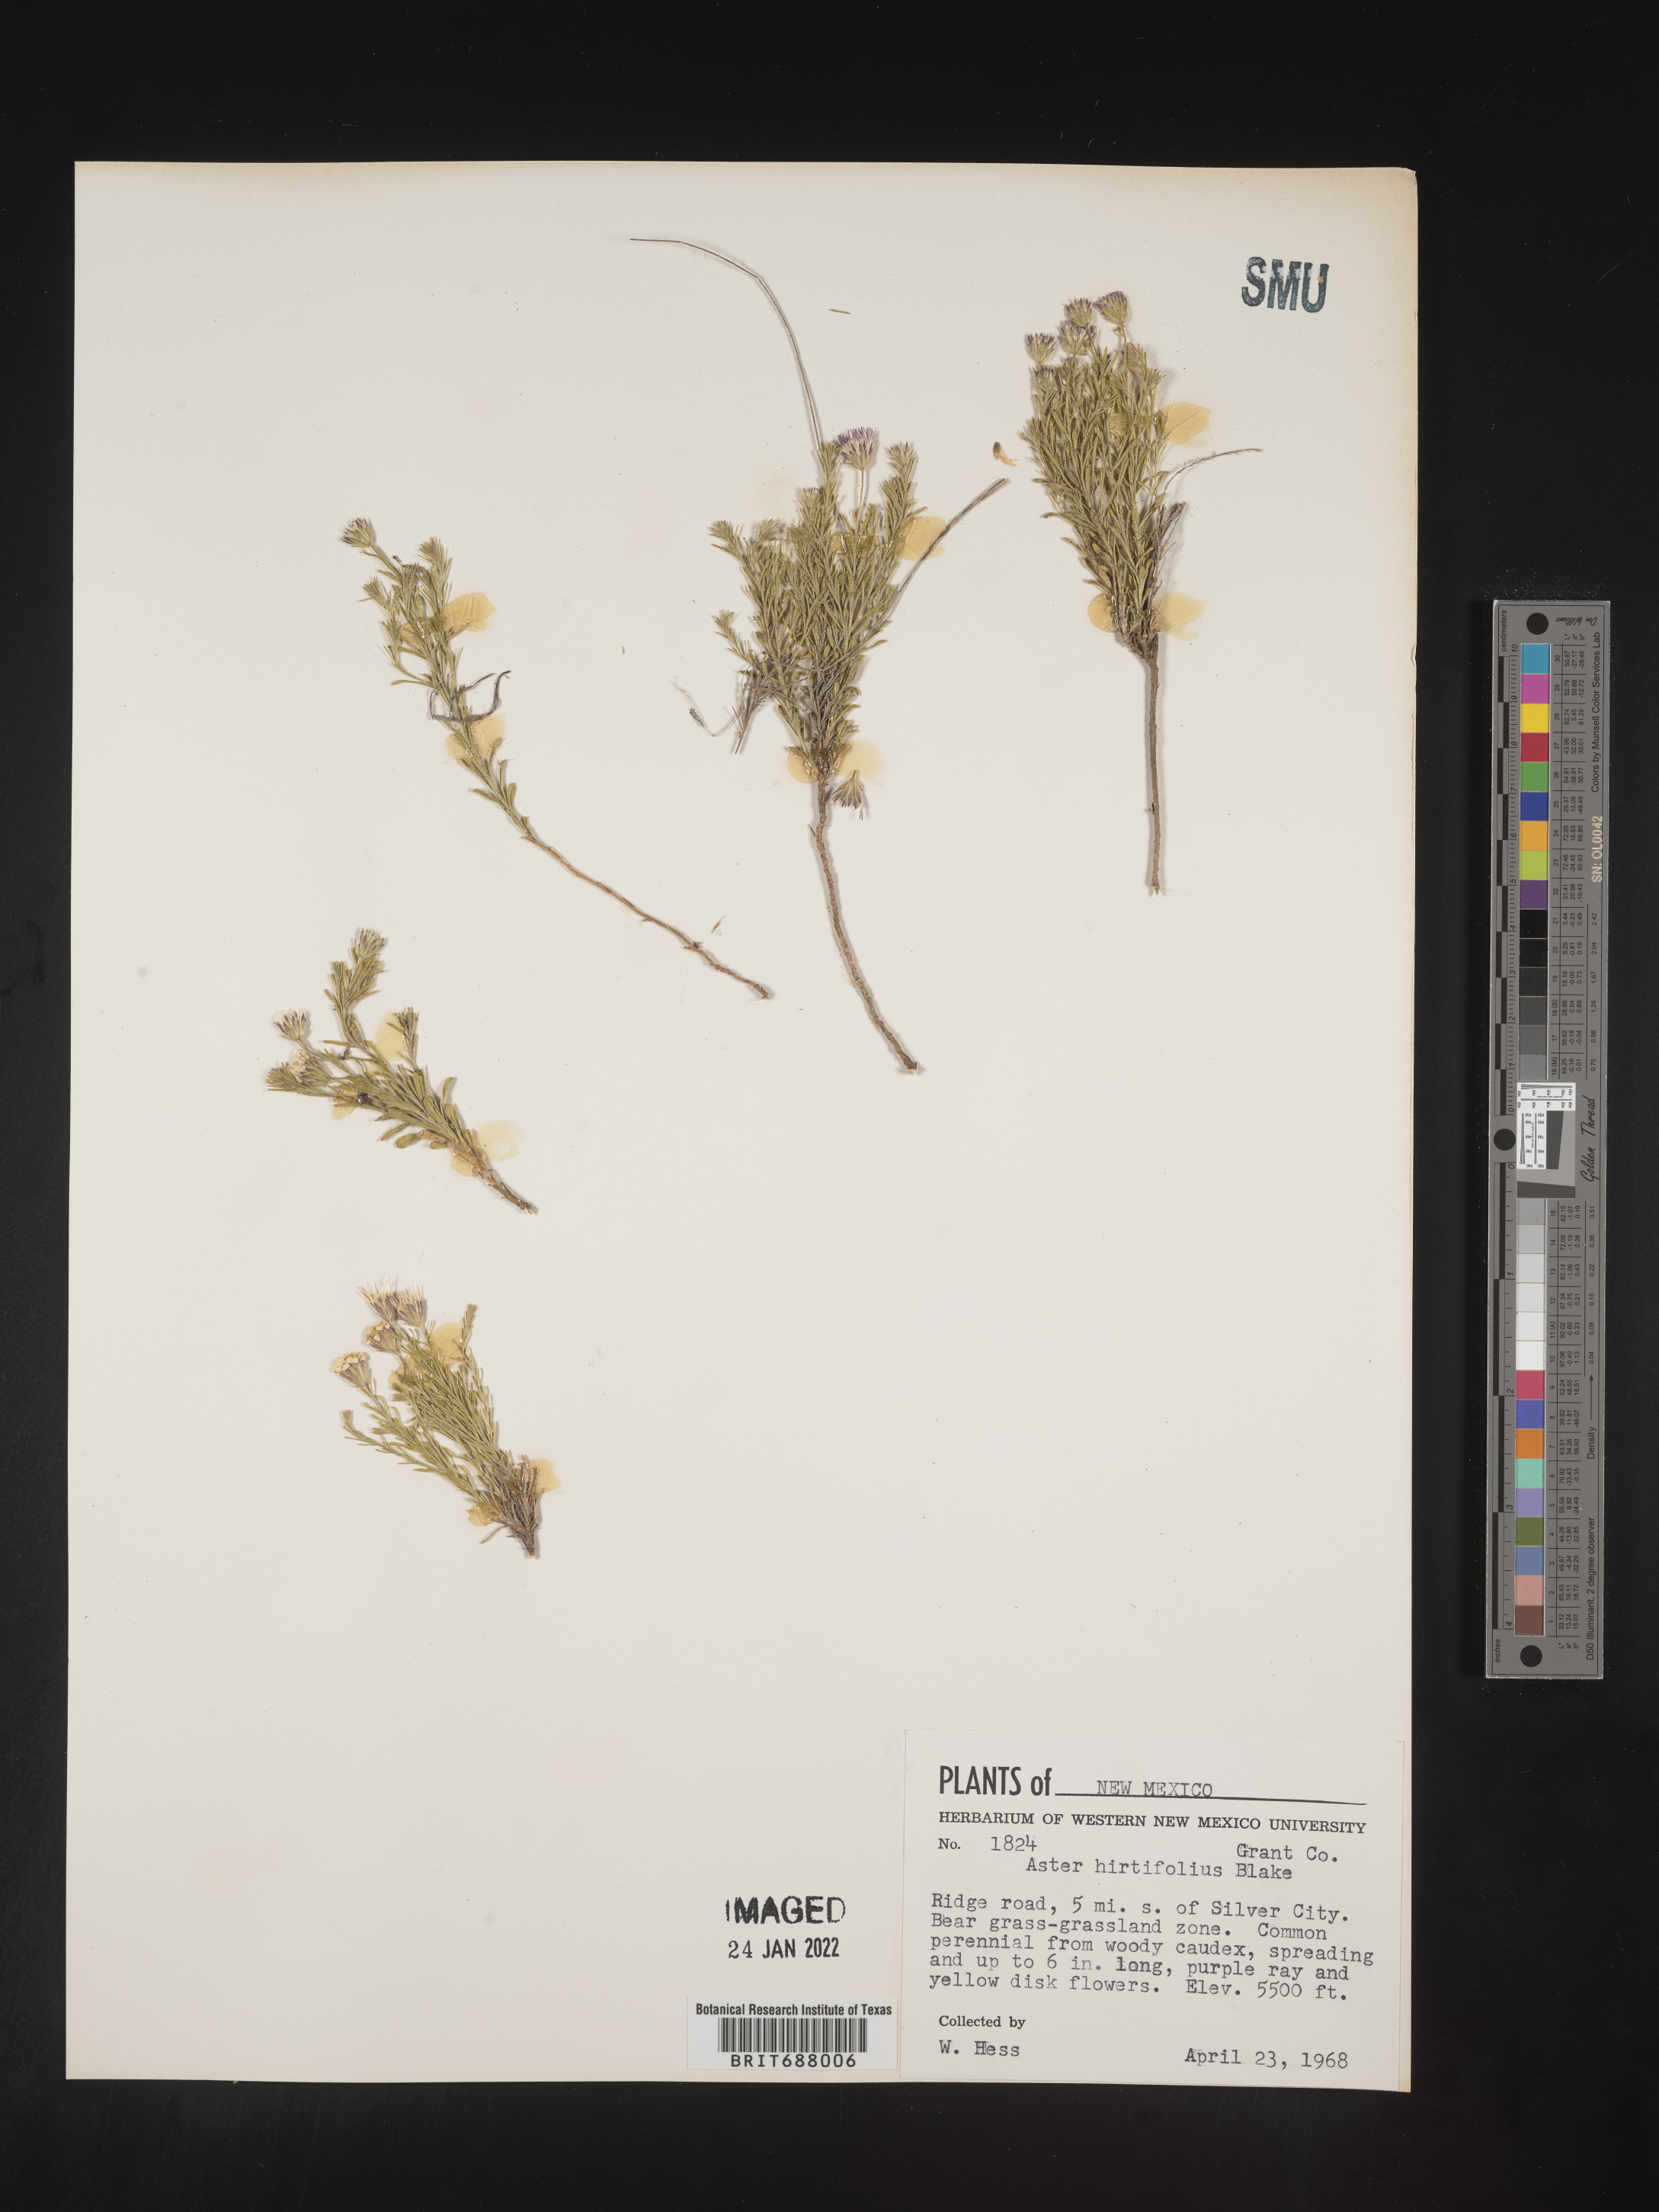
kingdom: Plantae
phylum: Tracheophyta
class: Magnoliopsida
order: Asterales
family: Asteraceae
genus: Chaetopappa
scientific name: Chaetopappa ericoides
